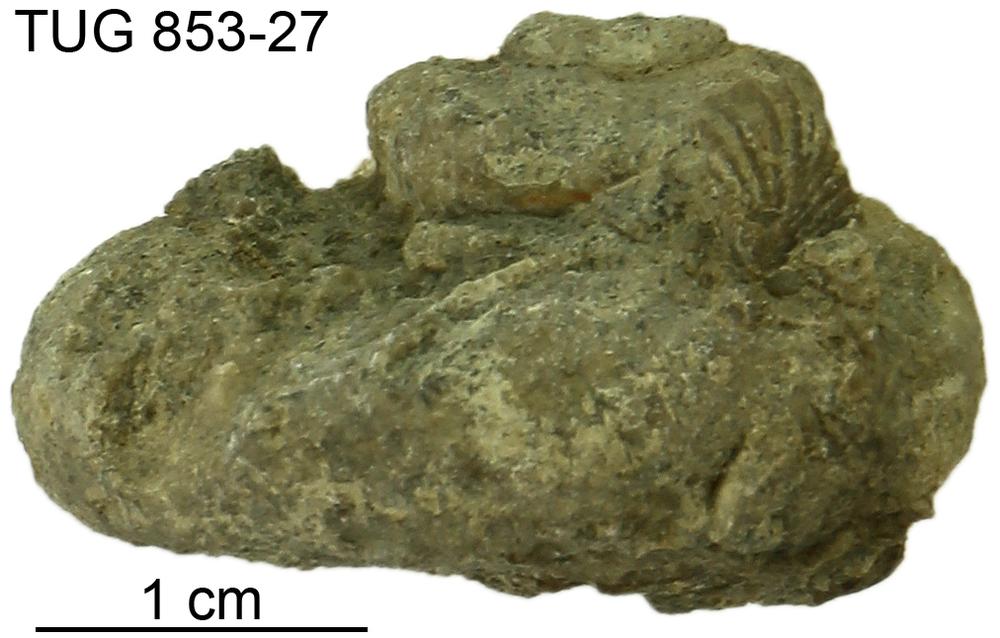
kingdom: Animalia
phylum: Mollusca
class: Gastropoda
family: Euomphalidae
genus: Euomphalus
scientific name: Euomphalus
